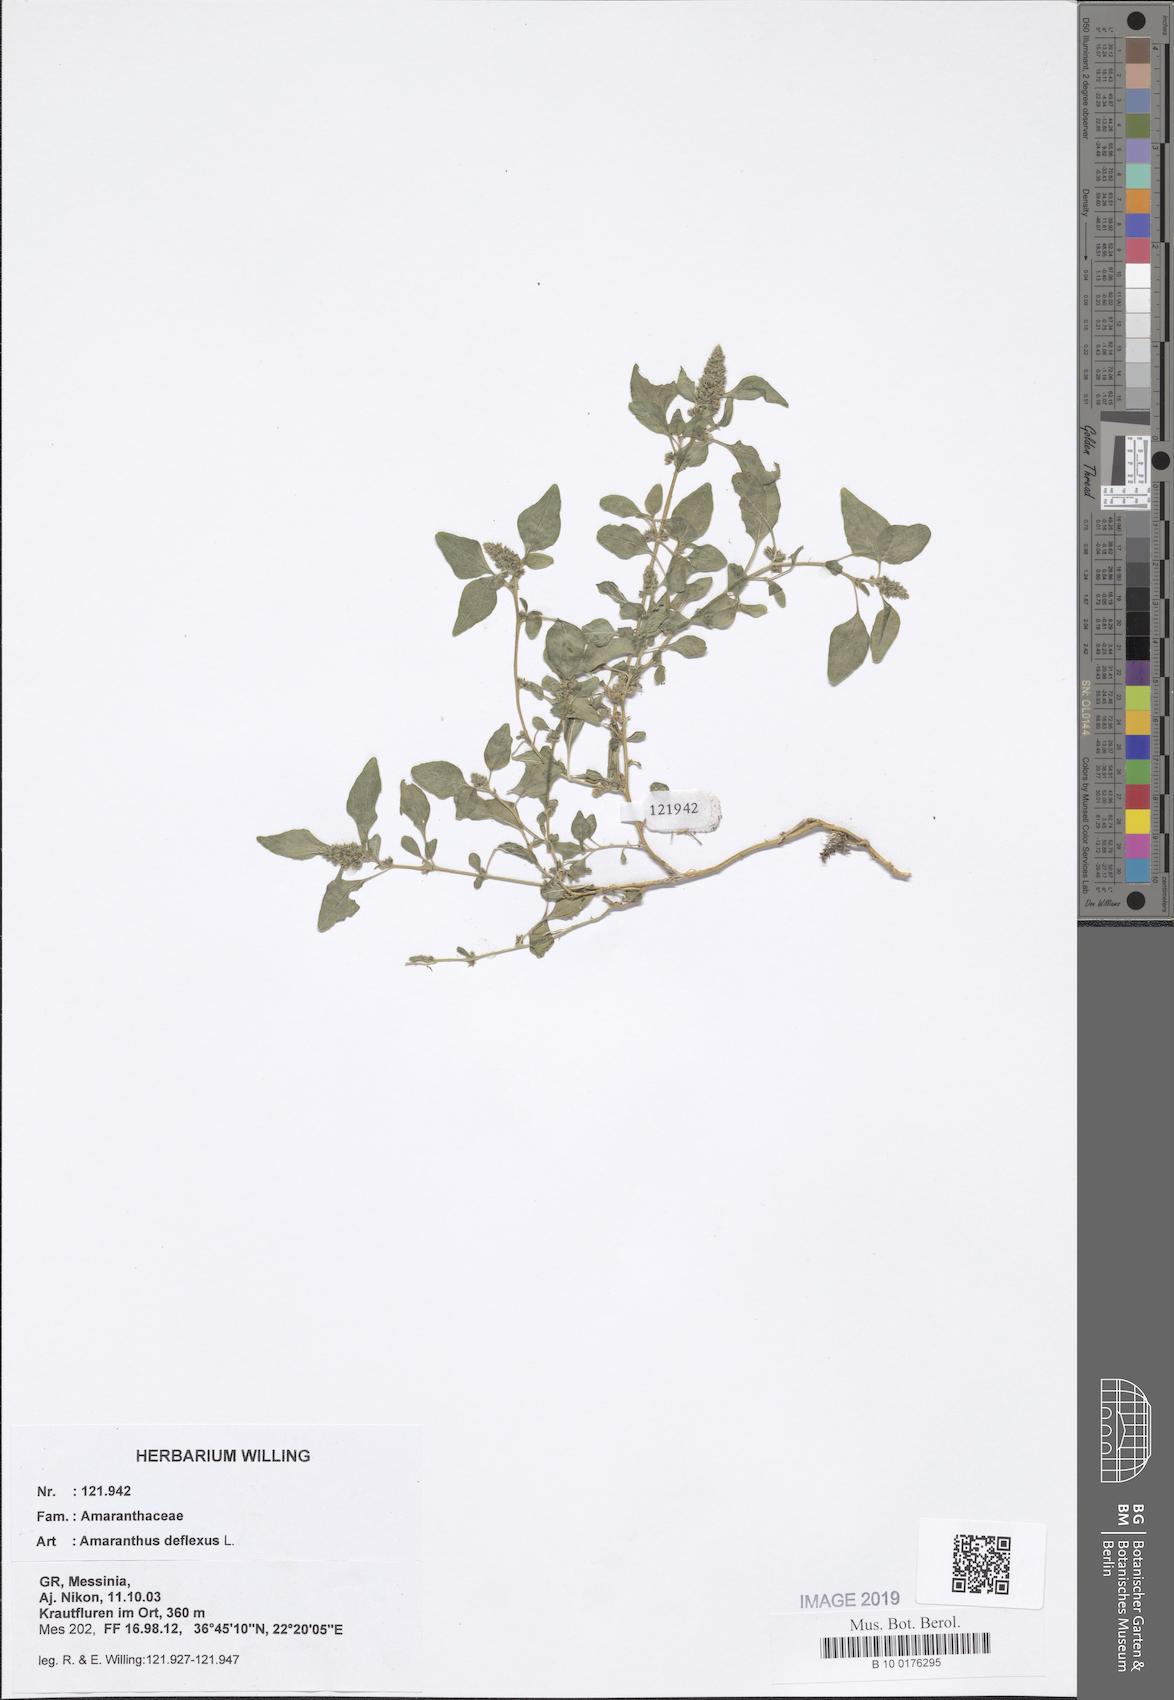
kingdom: Plantae
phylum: Tracheophyta
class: Magnoliopsida
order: Caryophyllales
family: Amaranthaceae
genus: Amaranthus
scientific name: Amaranthus deflexus
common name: Perennial pigweed
